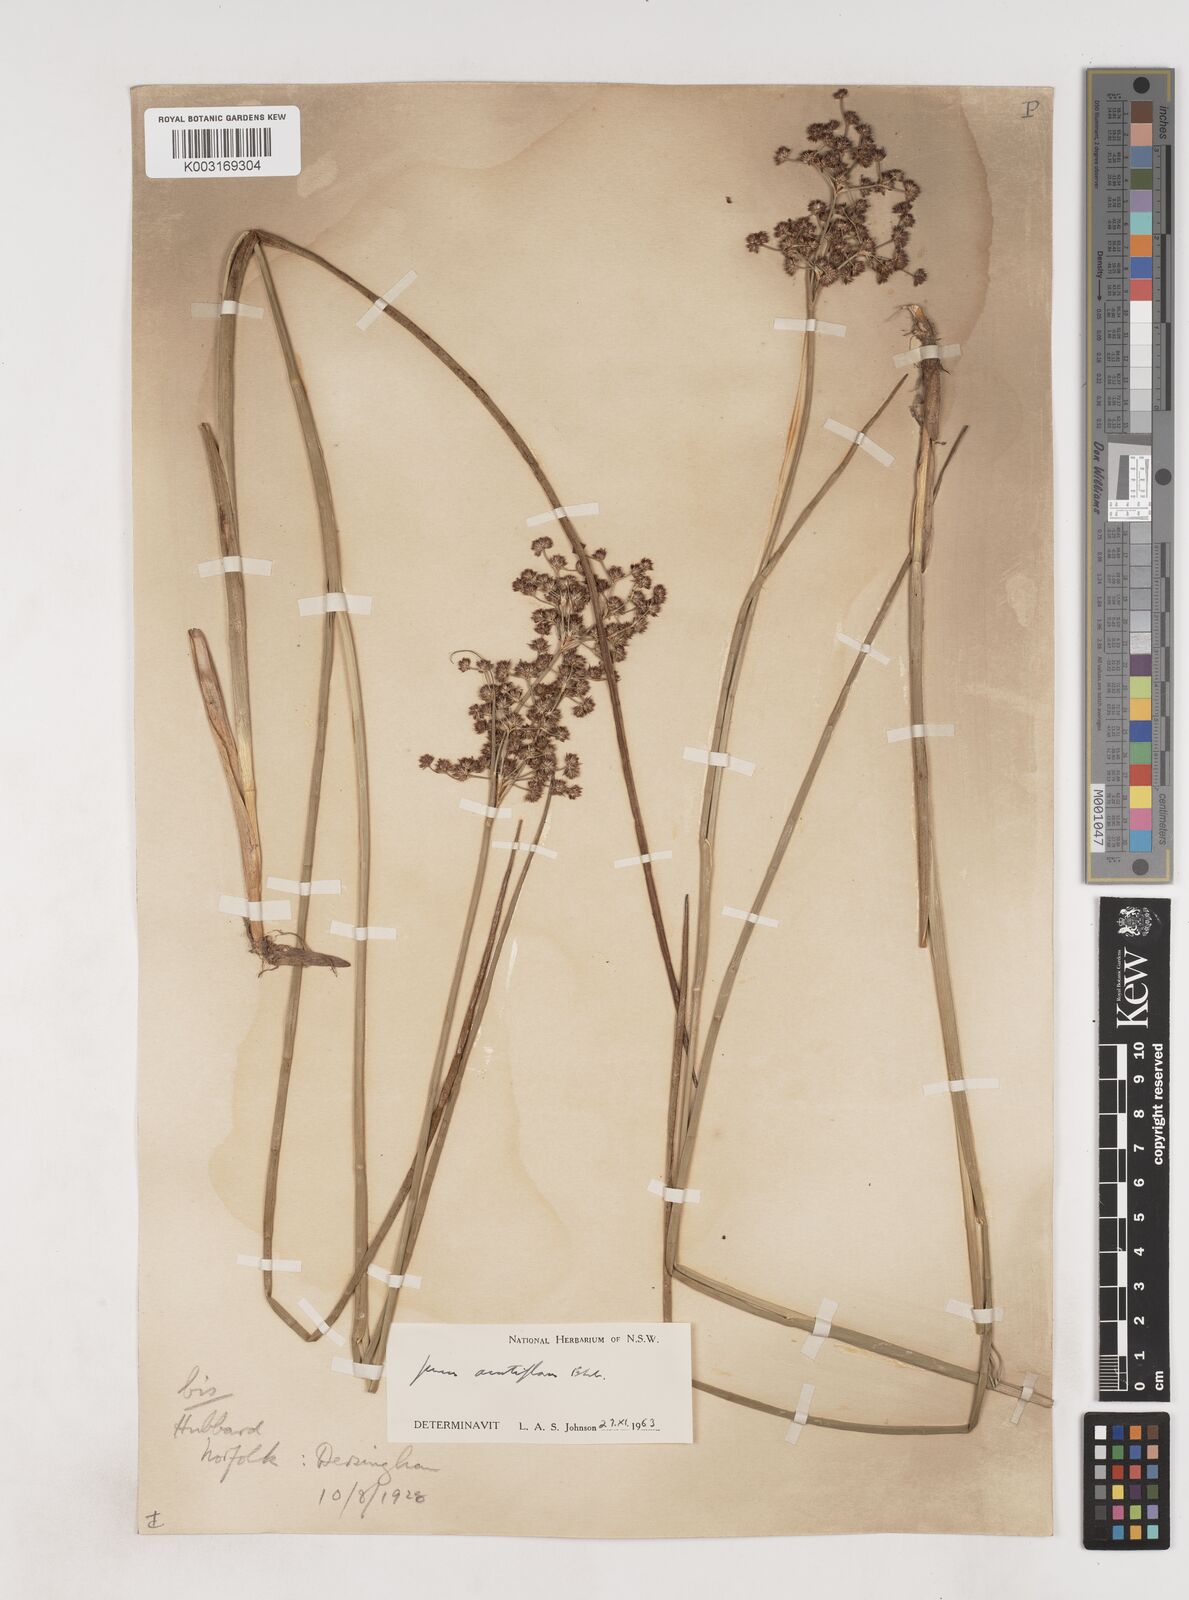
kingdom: Plantae
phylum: Tracheophyta
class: Liliopsida
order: Poales
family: Juncaceae
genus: Juncus
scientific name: Juncus acutiflorus
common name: Sharp-flowered rush
